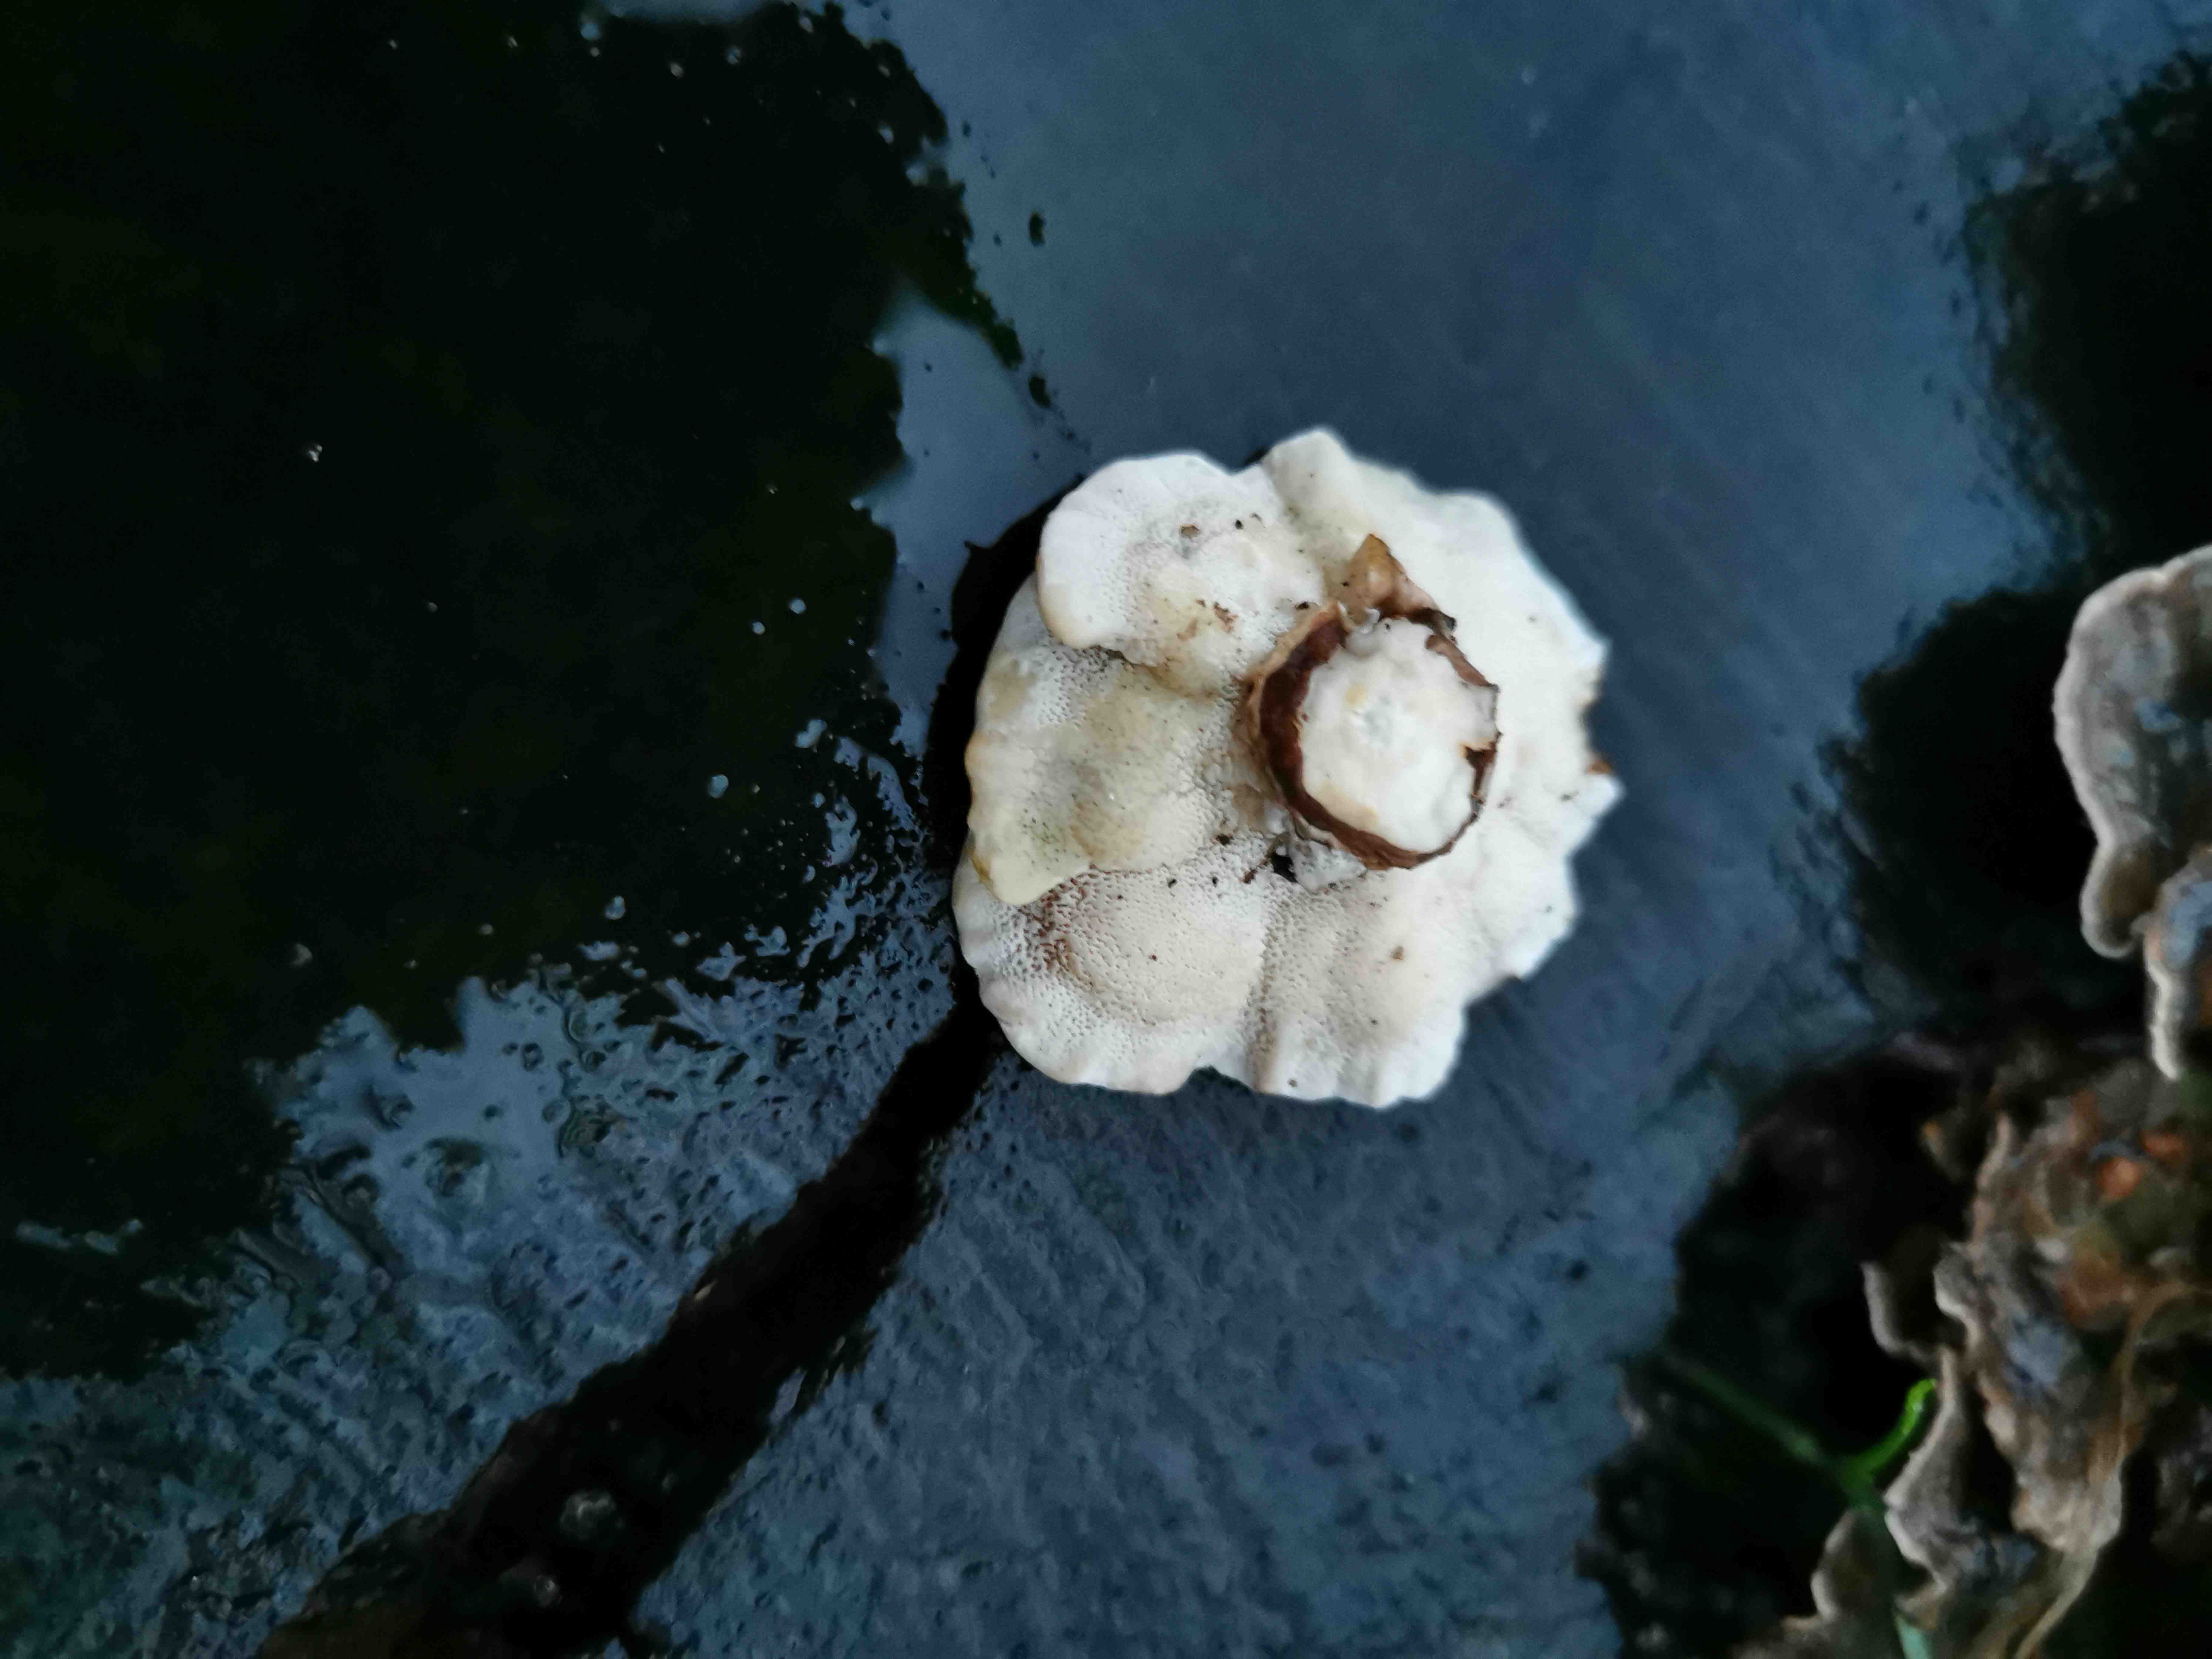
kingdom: Fungi
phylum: Basidiomycota
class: Agaricomycetes
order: Polyporales
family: Polyporaceae
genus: Trametes
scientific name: Trametes versicolor
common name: broget læderporesvamp
